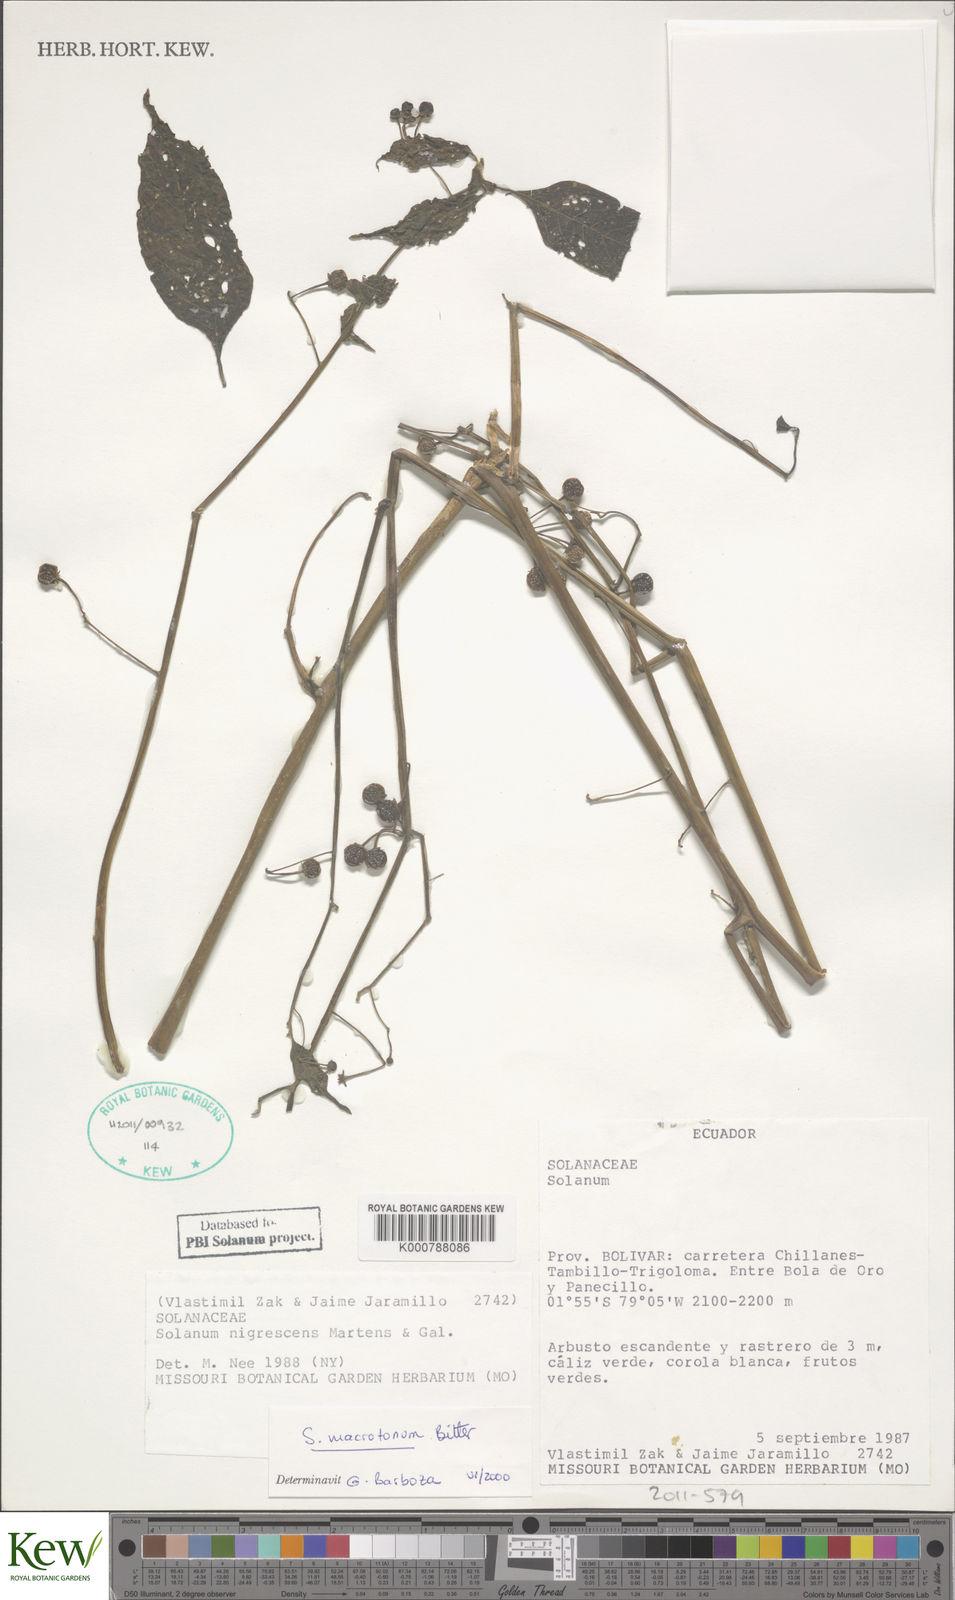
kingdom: Plantae
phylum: Tracheophyta
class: Magnoliopsida
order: Solanales
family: Solanaceae
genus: Solanum
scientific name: Solanum macrotonum
